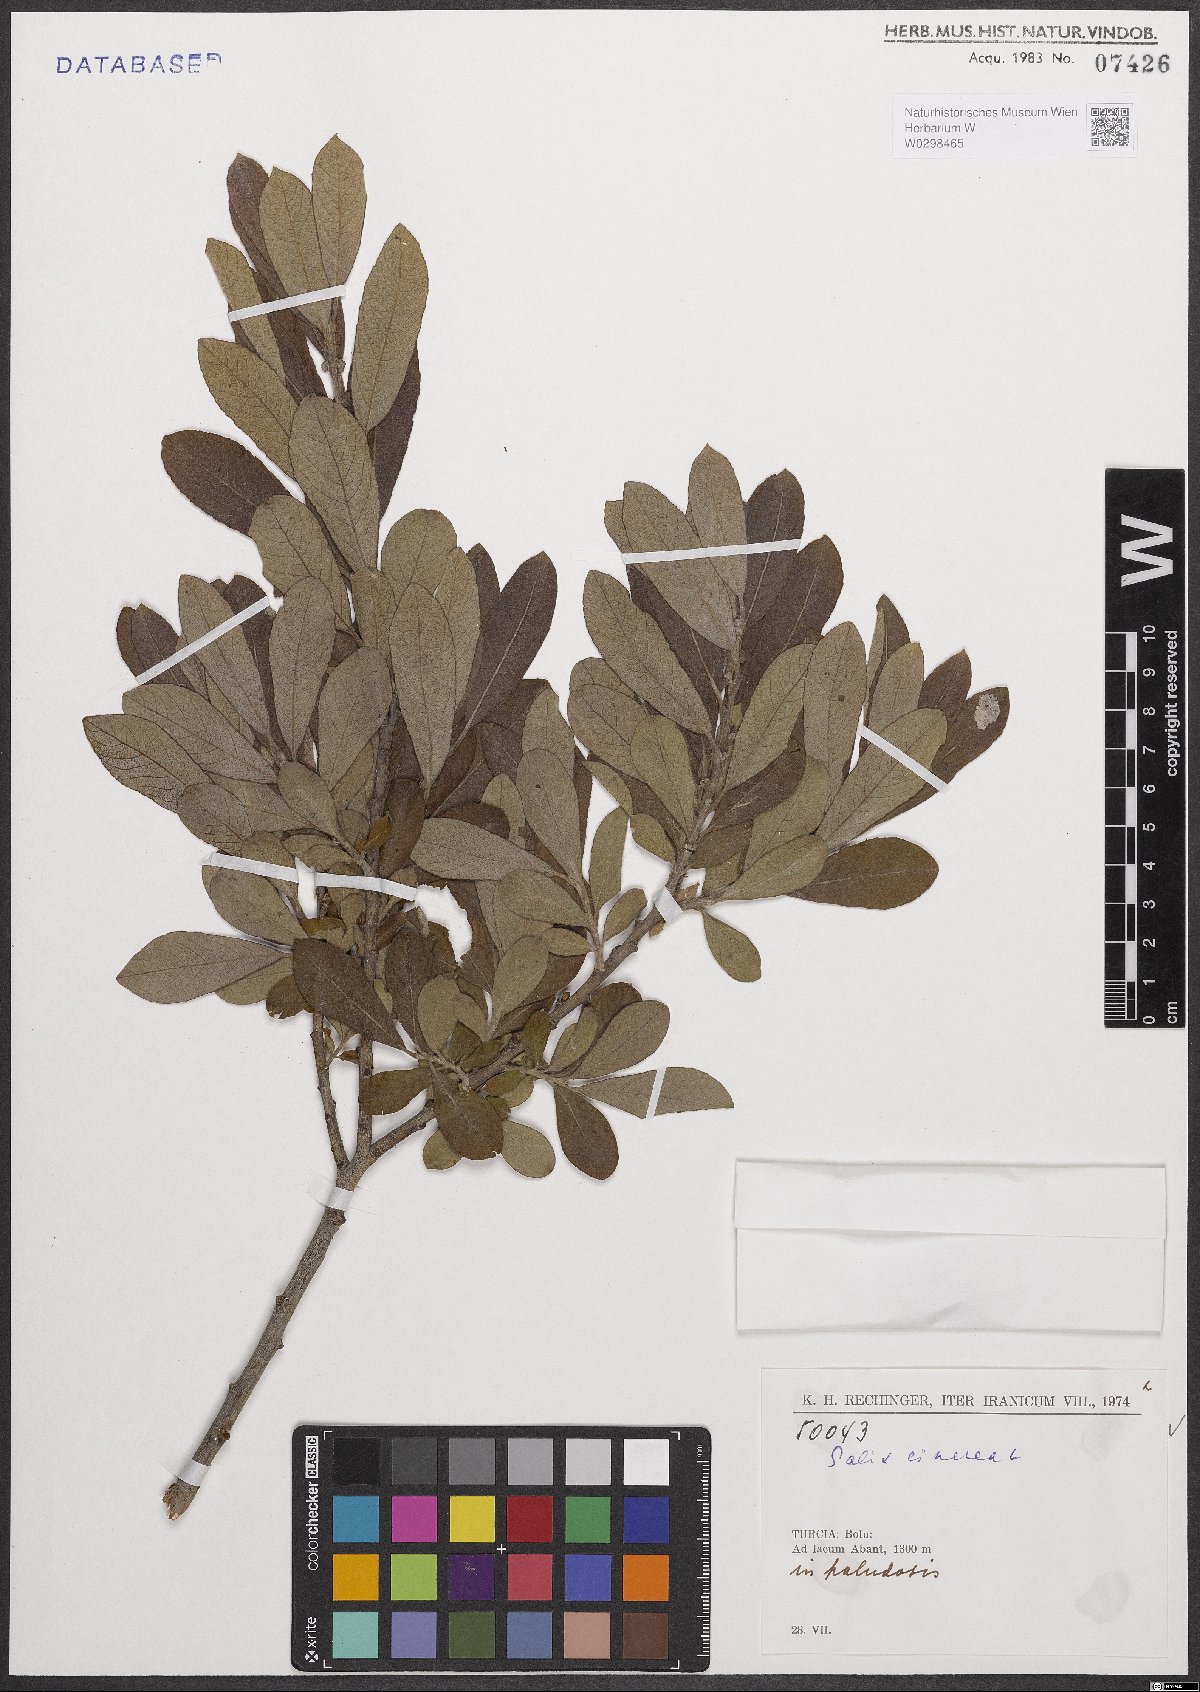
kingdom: Plantae
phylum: Tracheophyta
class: Magnoliopsida
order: Malpighiales
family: Salicaceae
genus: Salix
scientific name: Salix cinerea
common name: Common sallow
